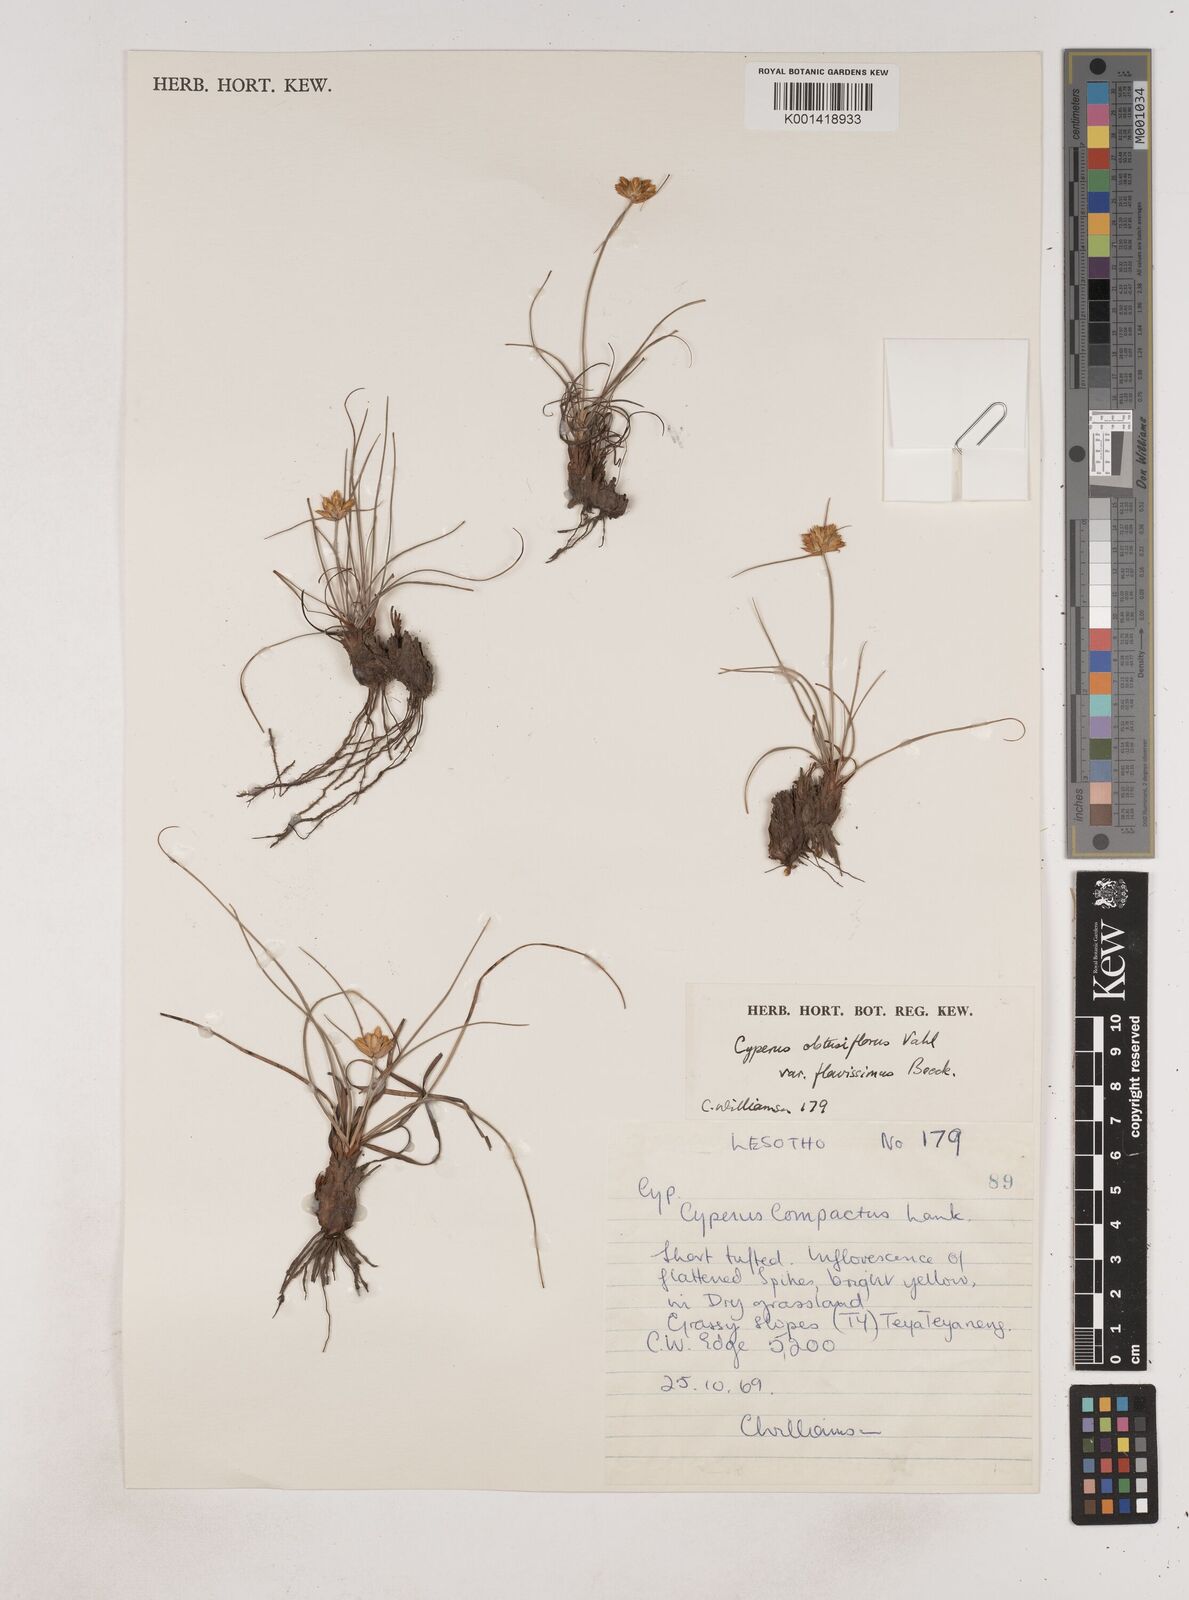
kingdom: Plantae
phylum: Tracheophyta
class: Liliopsida
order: Poales
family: Cyperaceae
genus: Cyperus
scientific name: Cyperus sphaerocephalus
